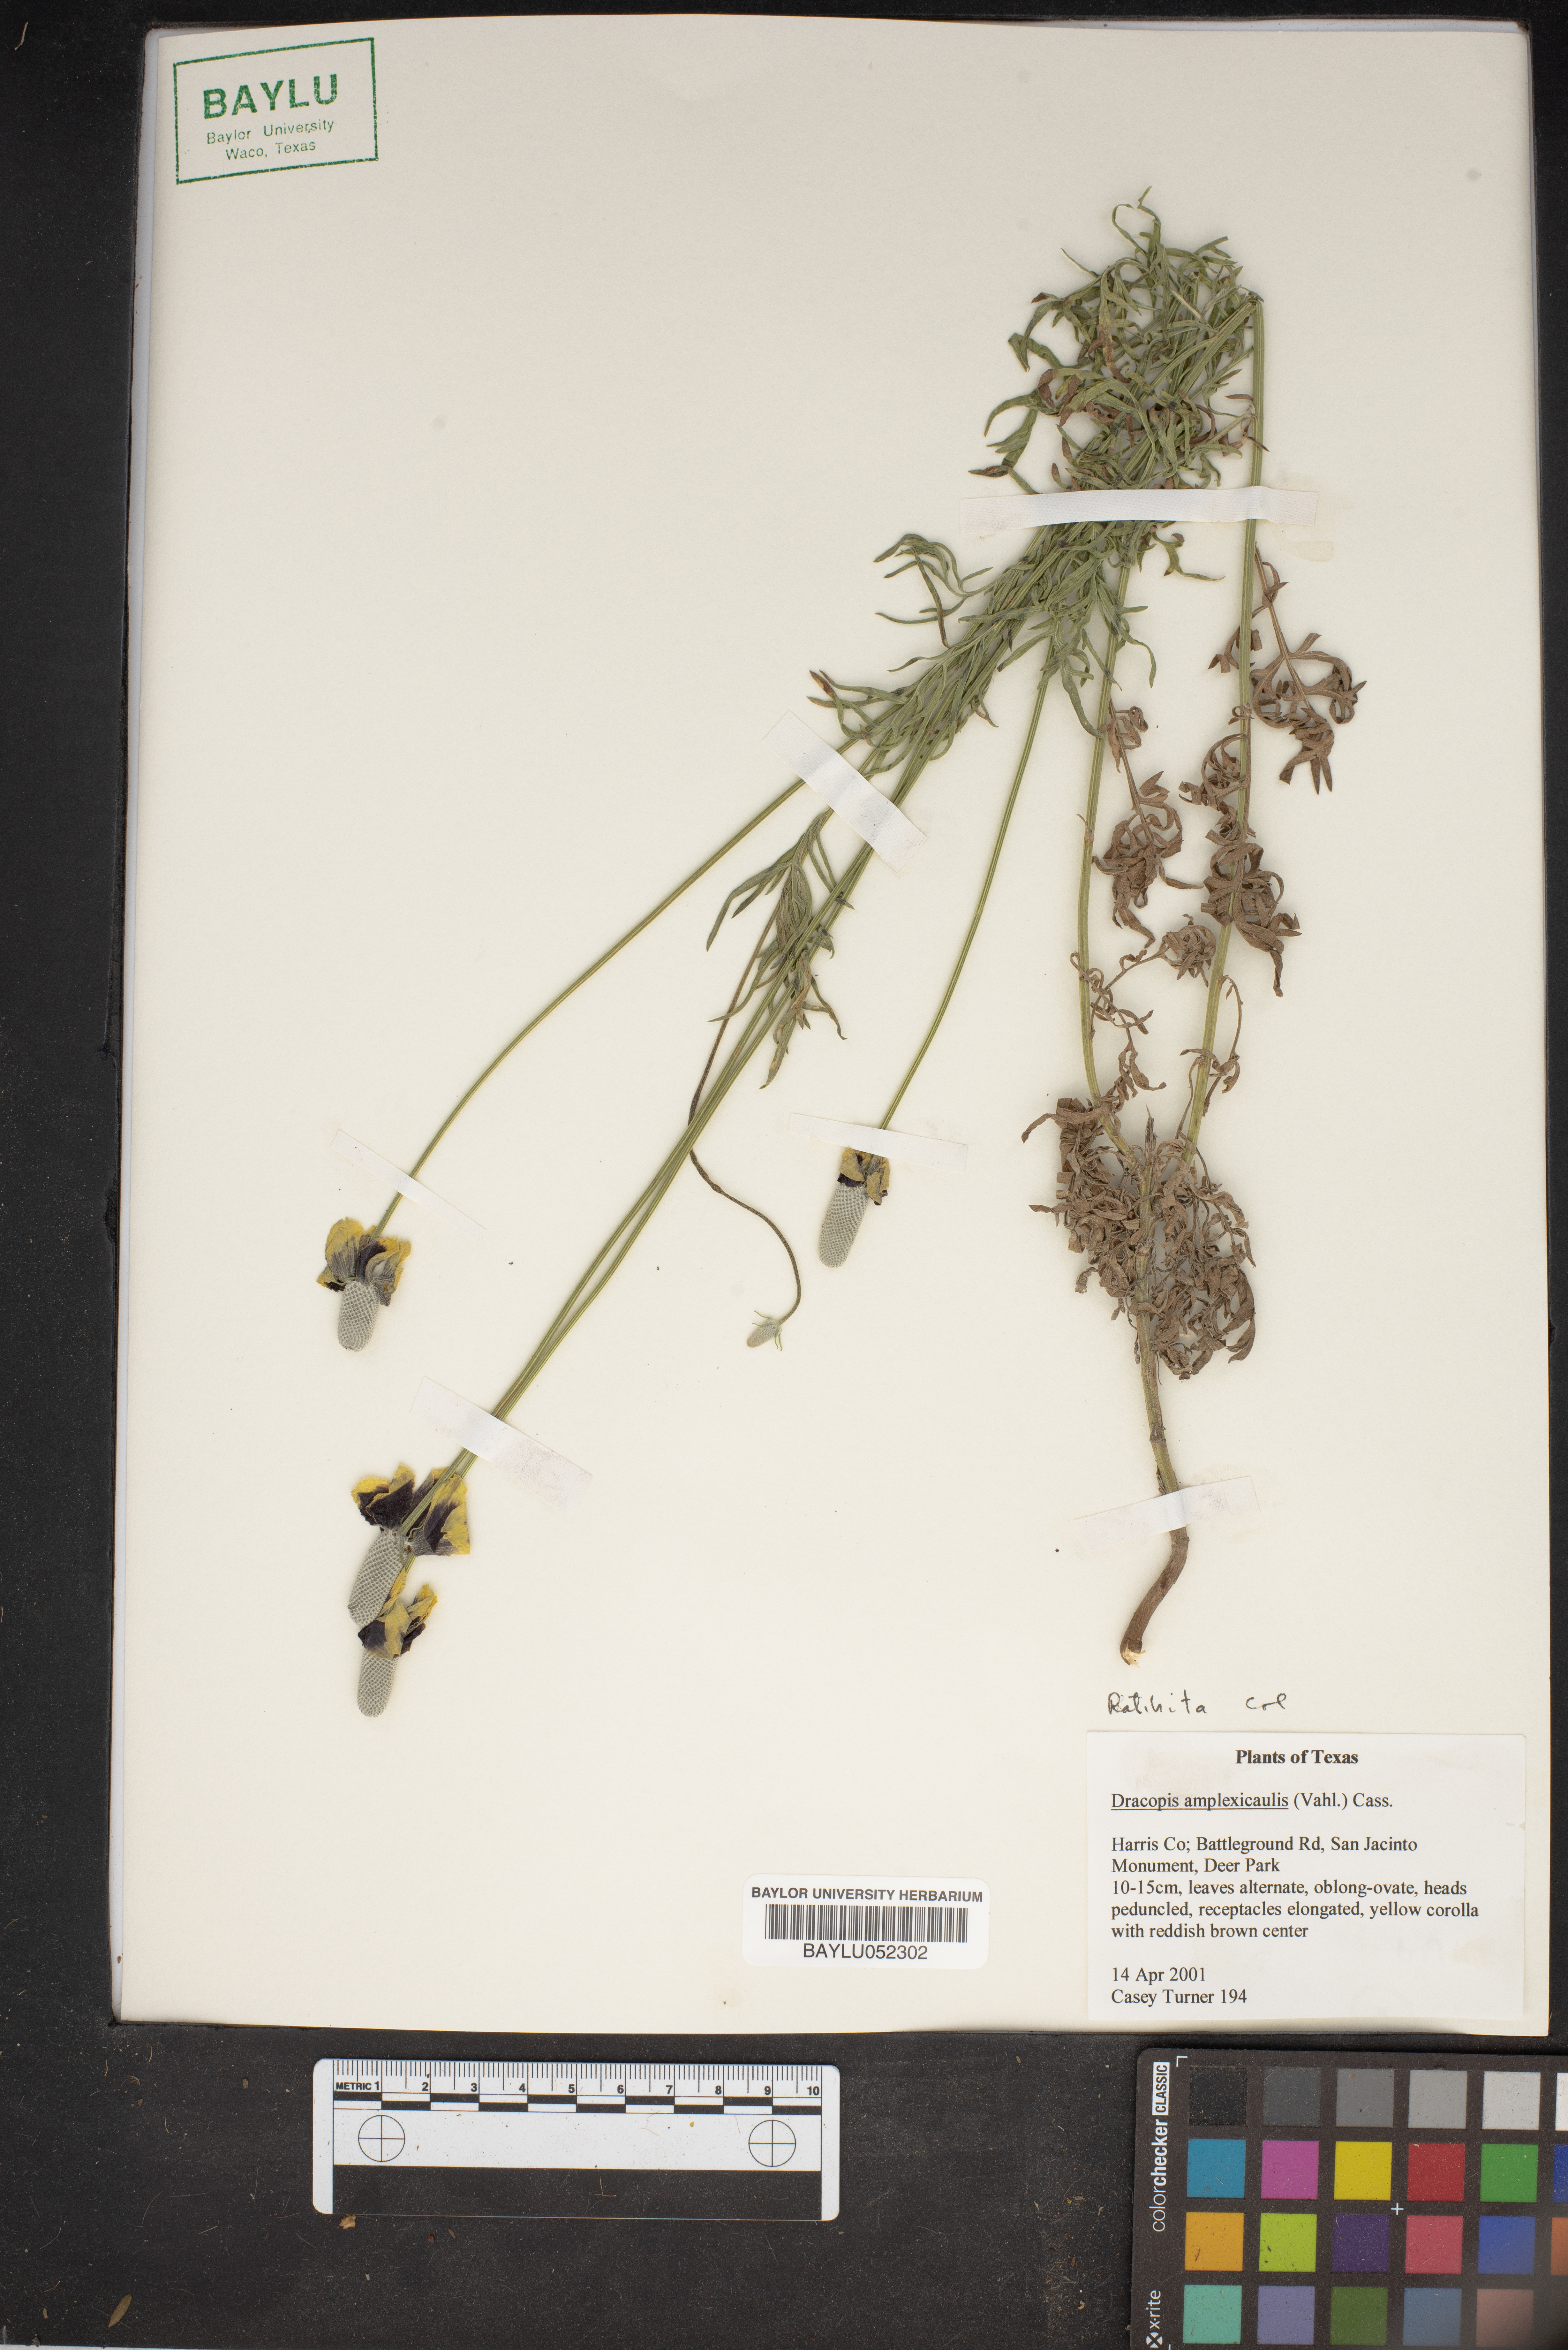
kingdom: Plantae
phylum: Tracheophyta
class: Magnoliopsida
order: Asterales
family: Asteraceae
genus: Rudbeckia
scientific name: Rudbeckia amplexicaulis
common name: Clasping-leaf coneflower
